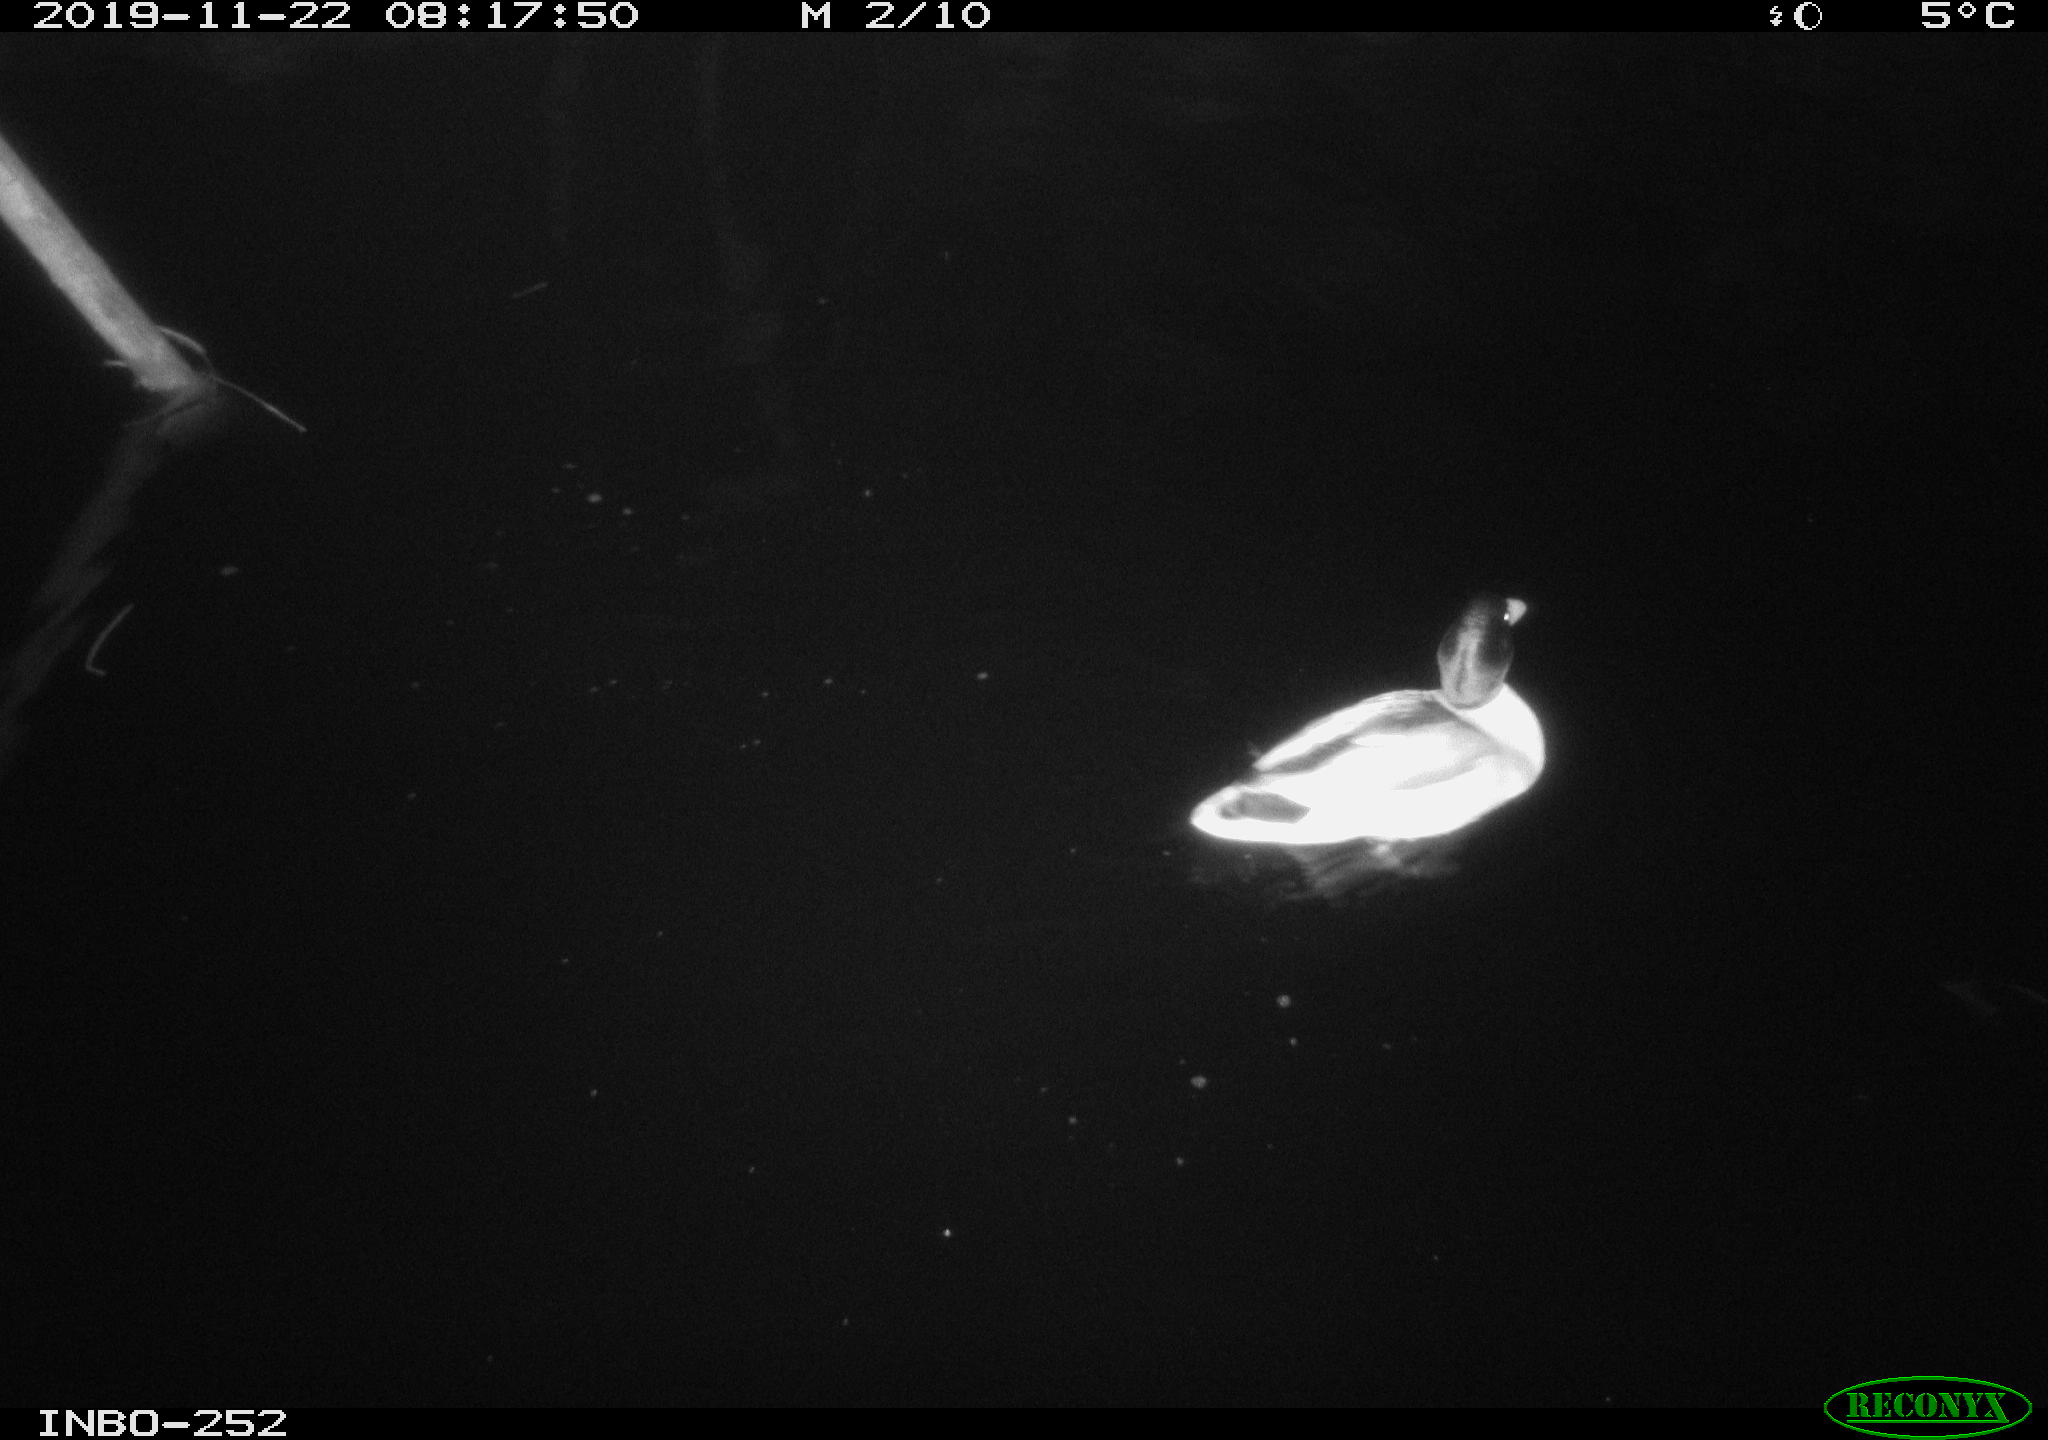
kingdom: Animalia
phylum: Chordata
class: Aves
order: Anseriformes
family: Anatidae
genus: Anas
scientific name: Anas platyrhynchos
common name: Mallard
